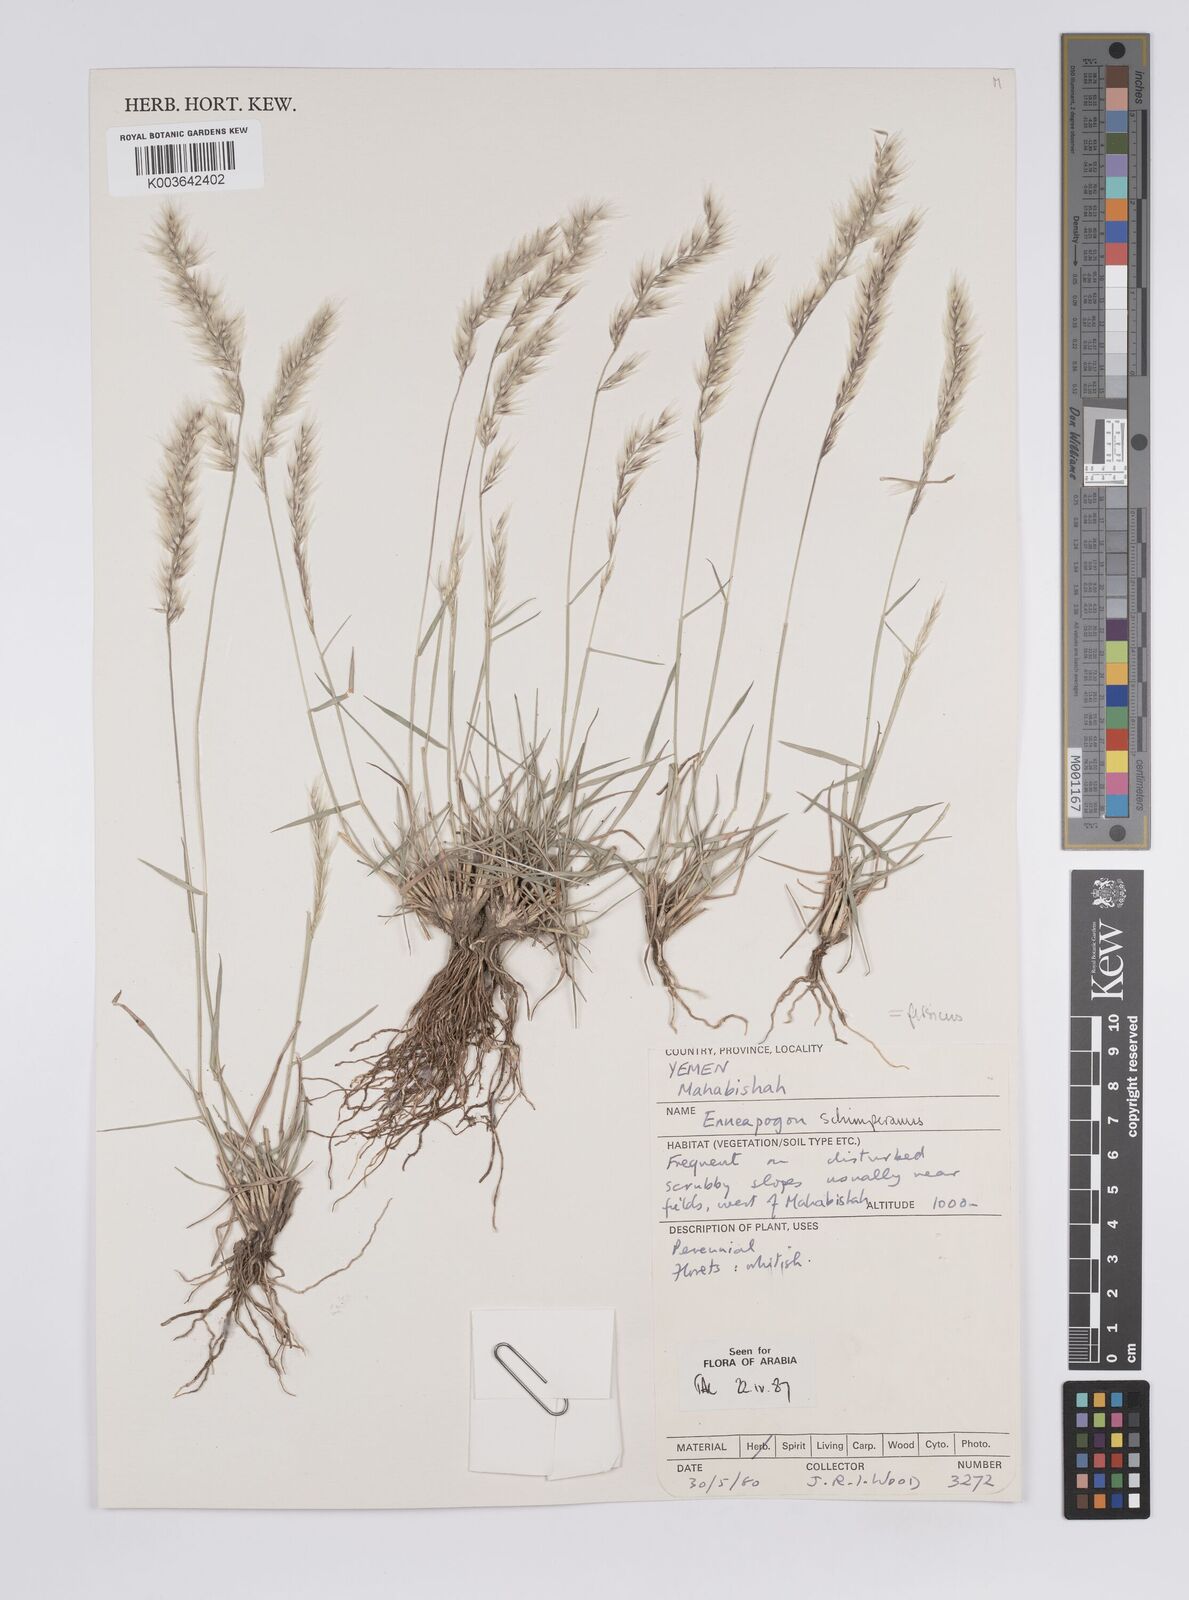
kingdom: Plantae
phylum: Tracheophyta
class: Liliopsida
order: Poales
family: Poaceae
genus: Enneapogon
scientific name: Enneapogon persicus
